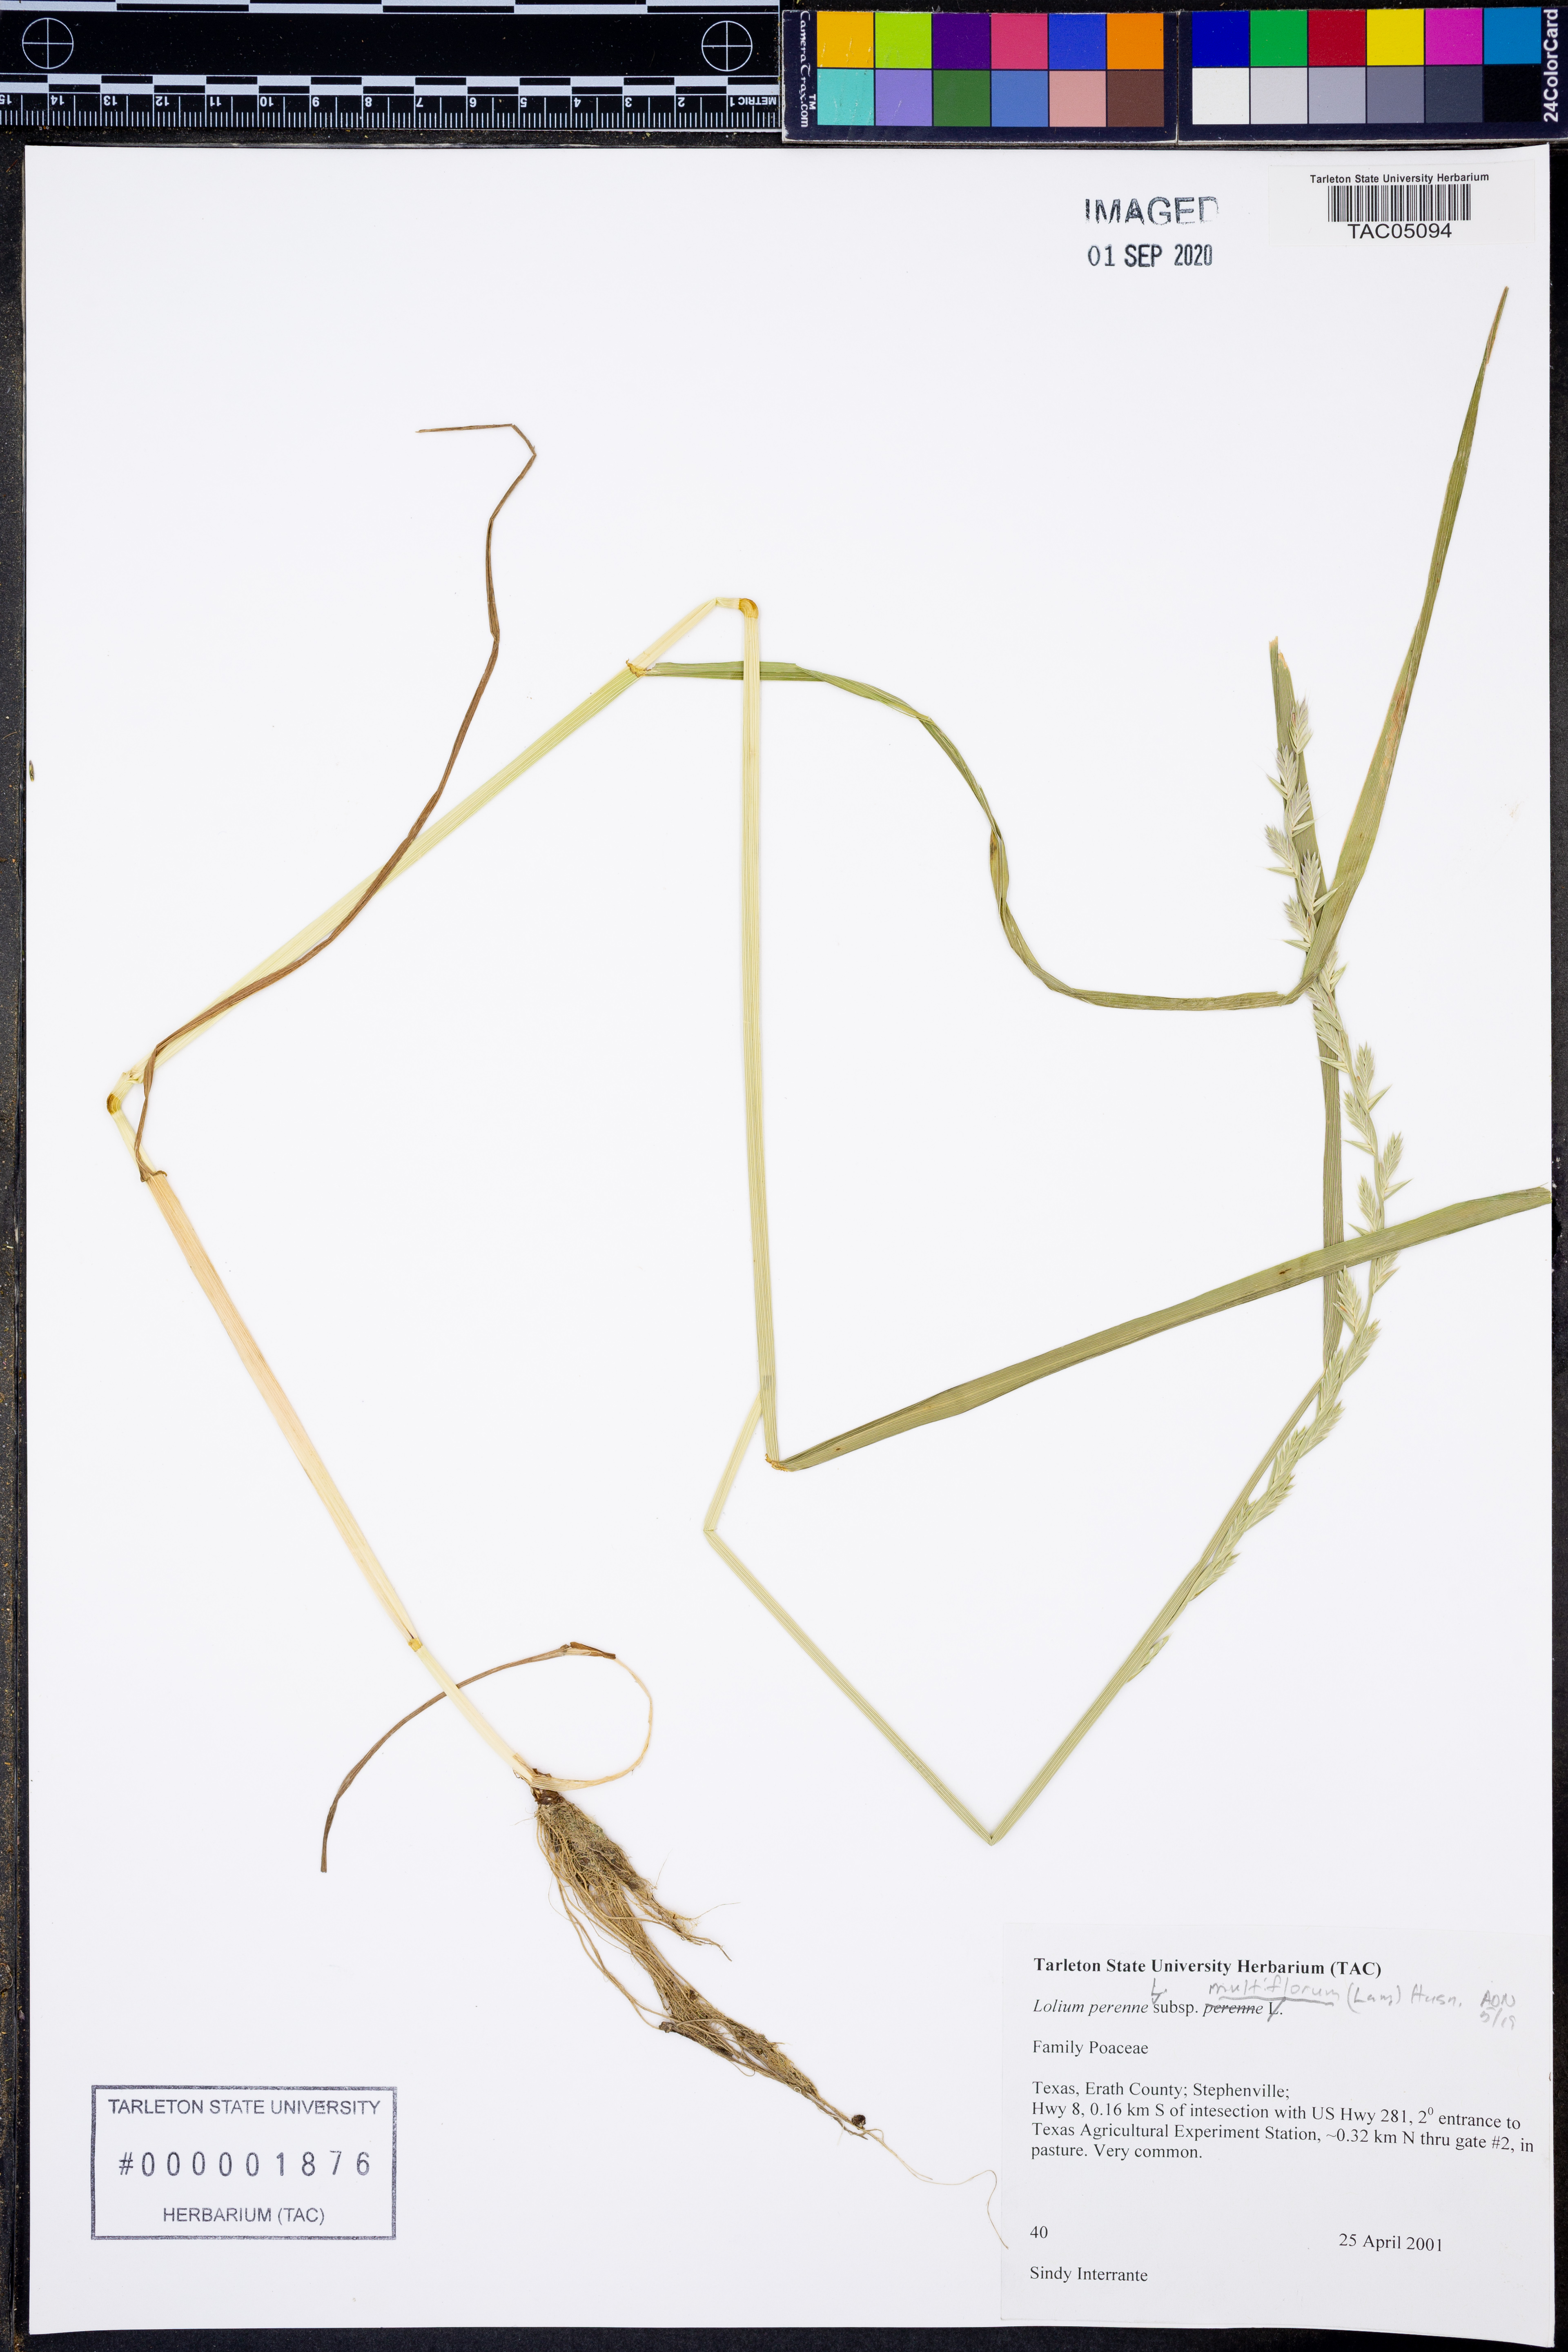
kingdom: Plantae
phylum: Tracheophyta
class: Liliopsida
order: Poales
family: Poaceae
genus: Lolium
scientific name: Lolium multiflorum
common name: Annual ryegrass
